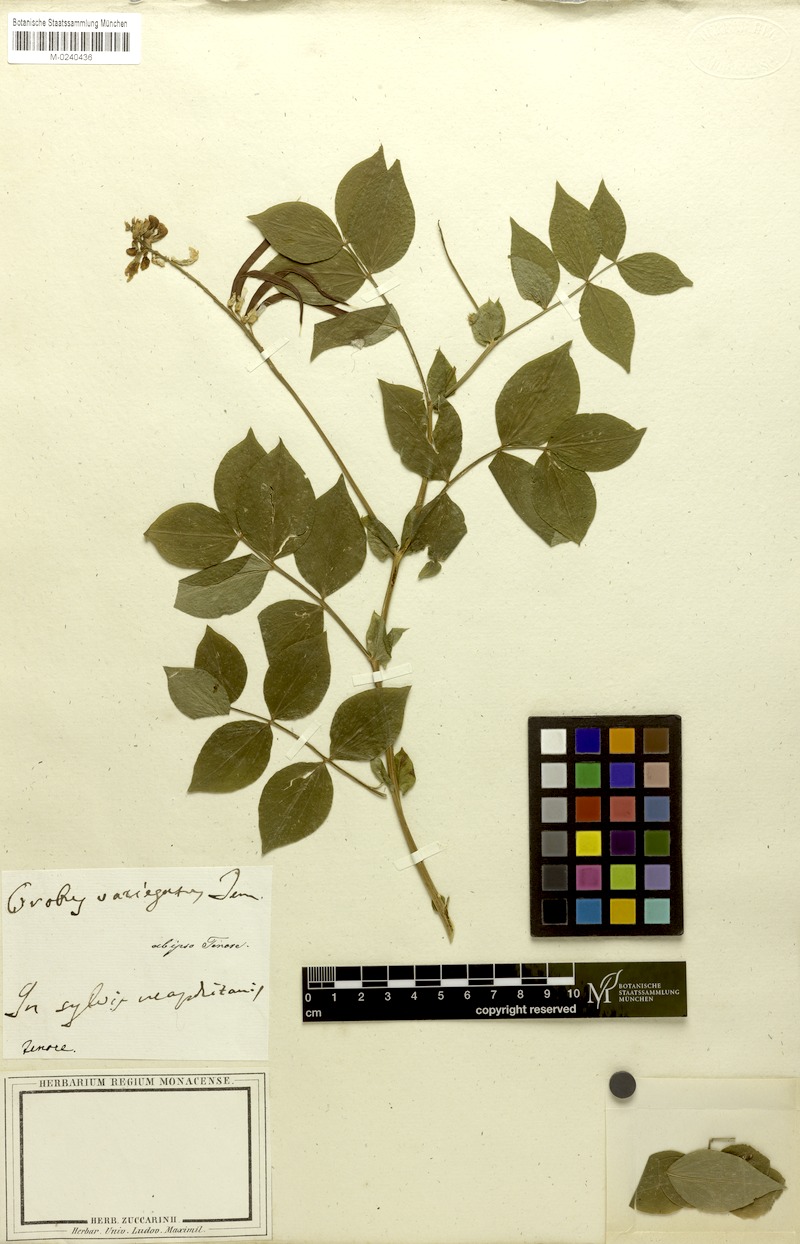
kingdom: Plantae
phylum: Tracheophyta
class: Magnoliopsida
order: Fabales
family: Fabaceae
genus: Lathyrus
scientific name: Lathyrus venetus
